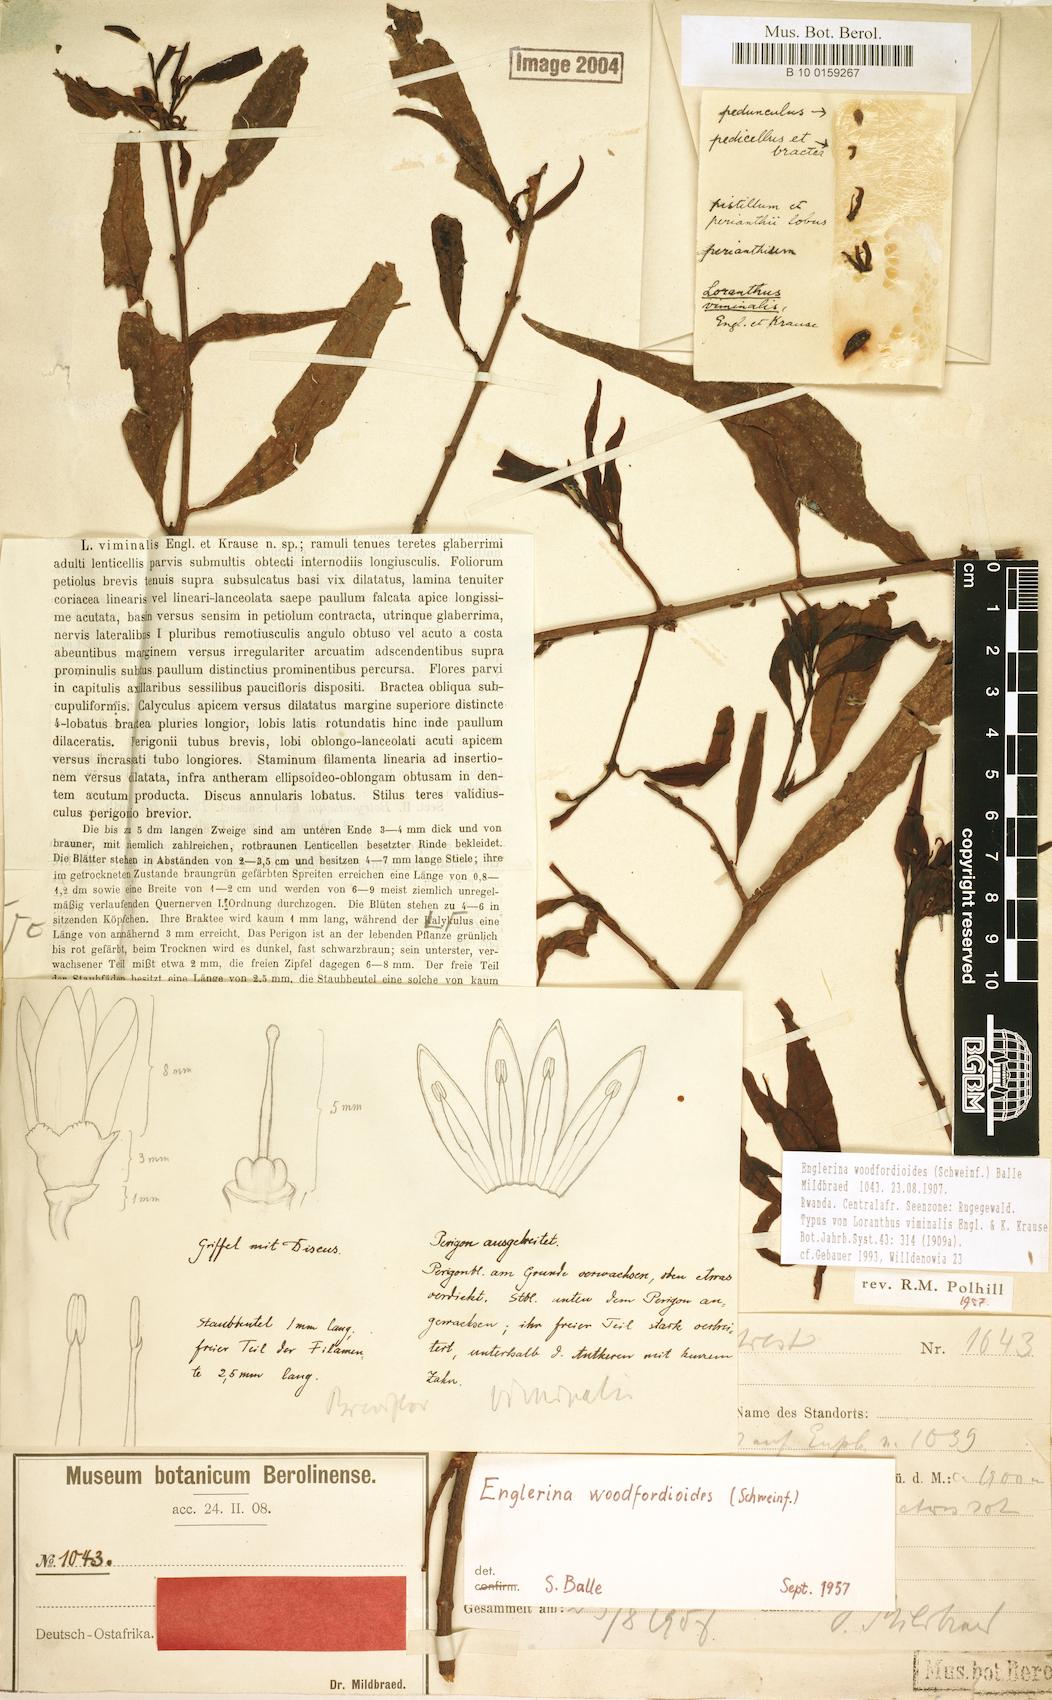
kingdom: Plantae
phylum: Tracheophyta
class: Magnoliopsida
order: Santalales
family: Loranthaceae
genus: Englerina
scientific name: Englerina woodfordioides
